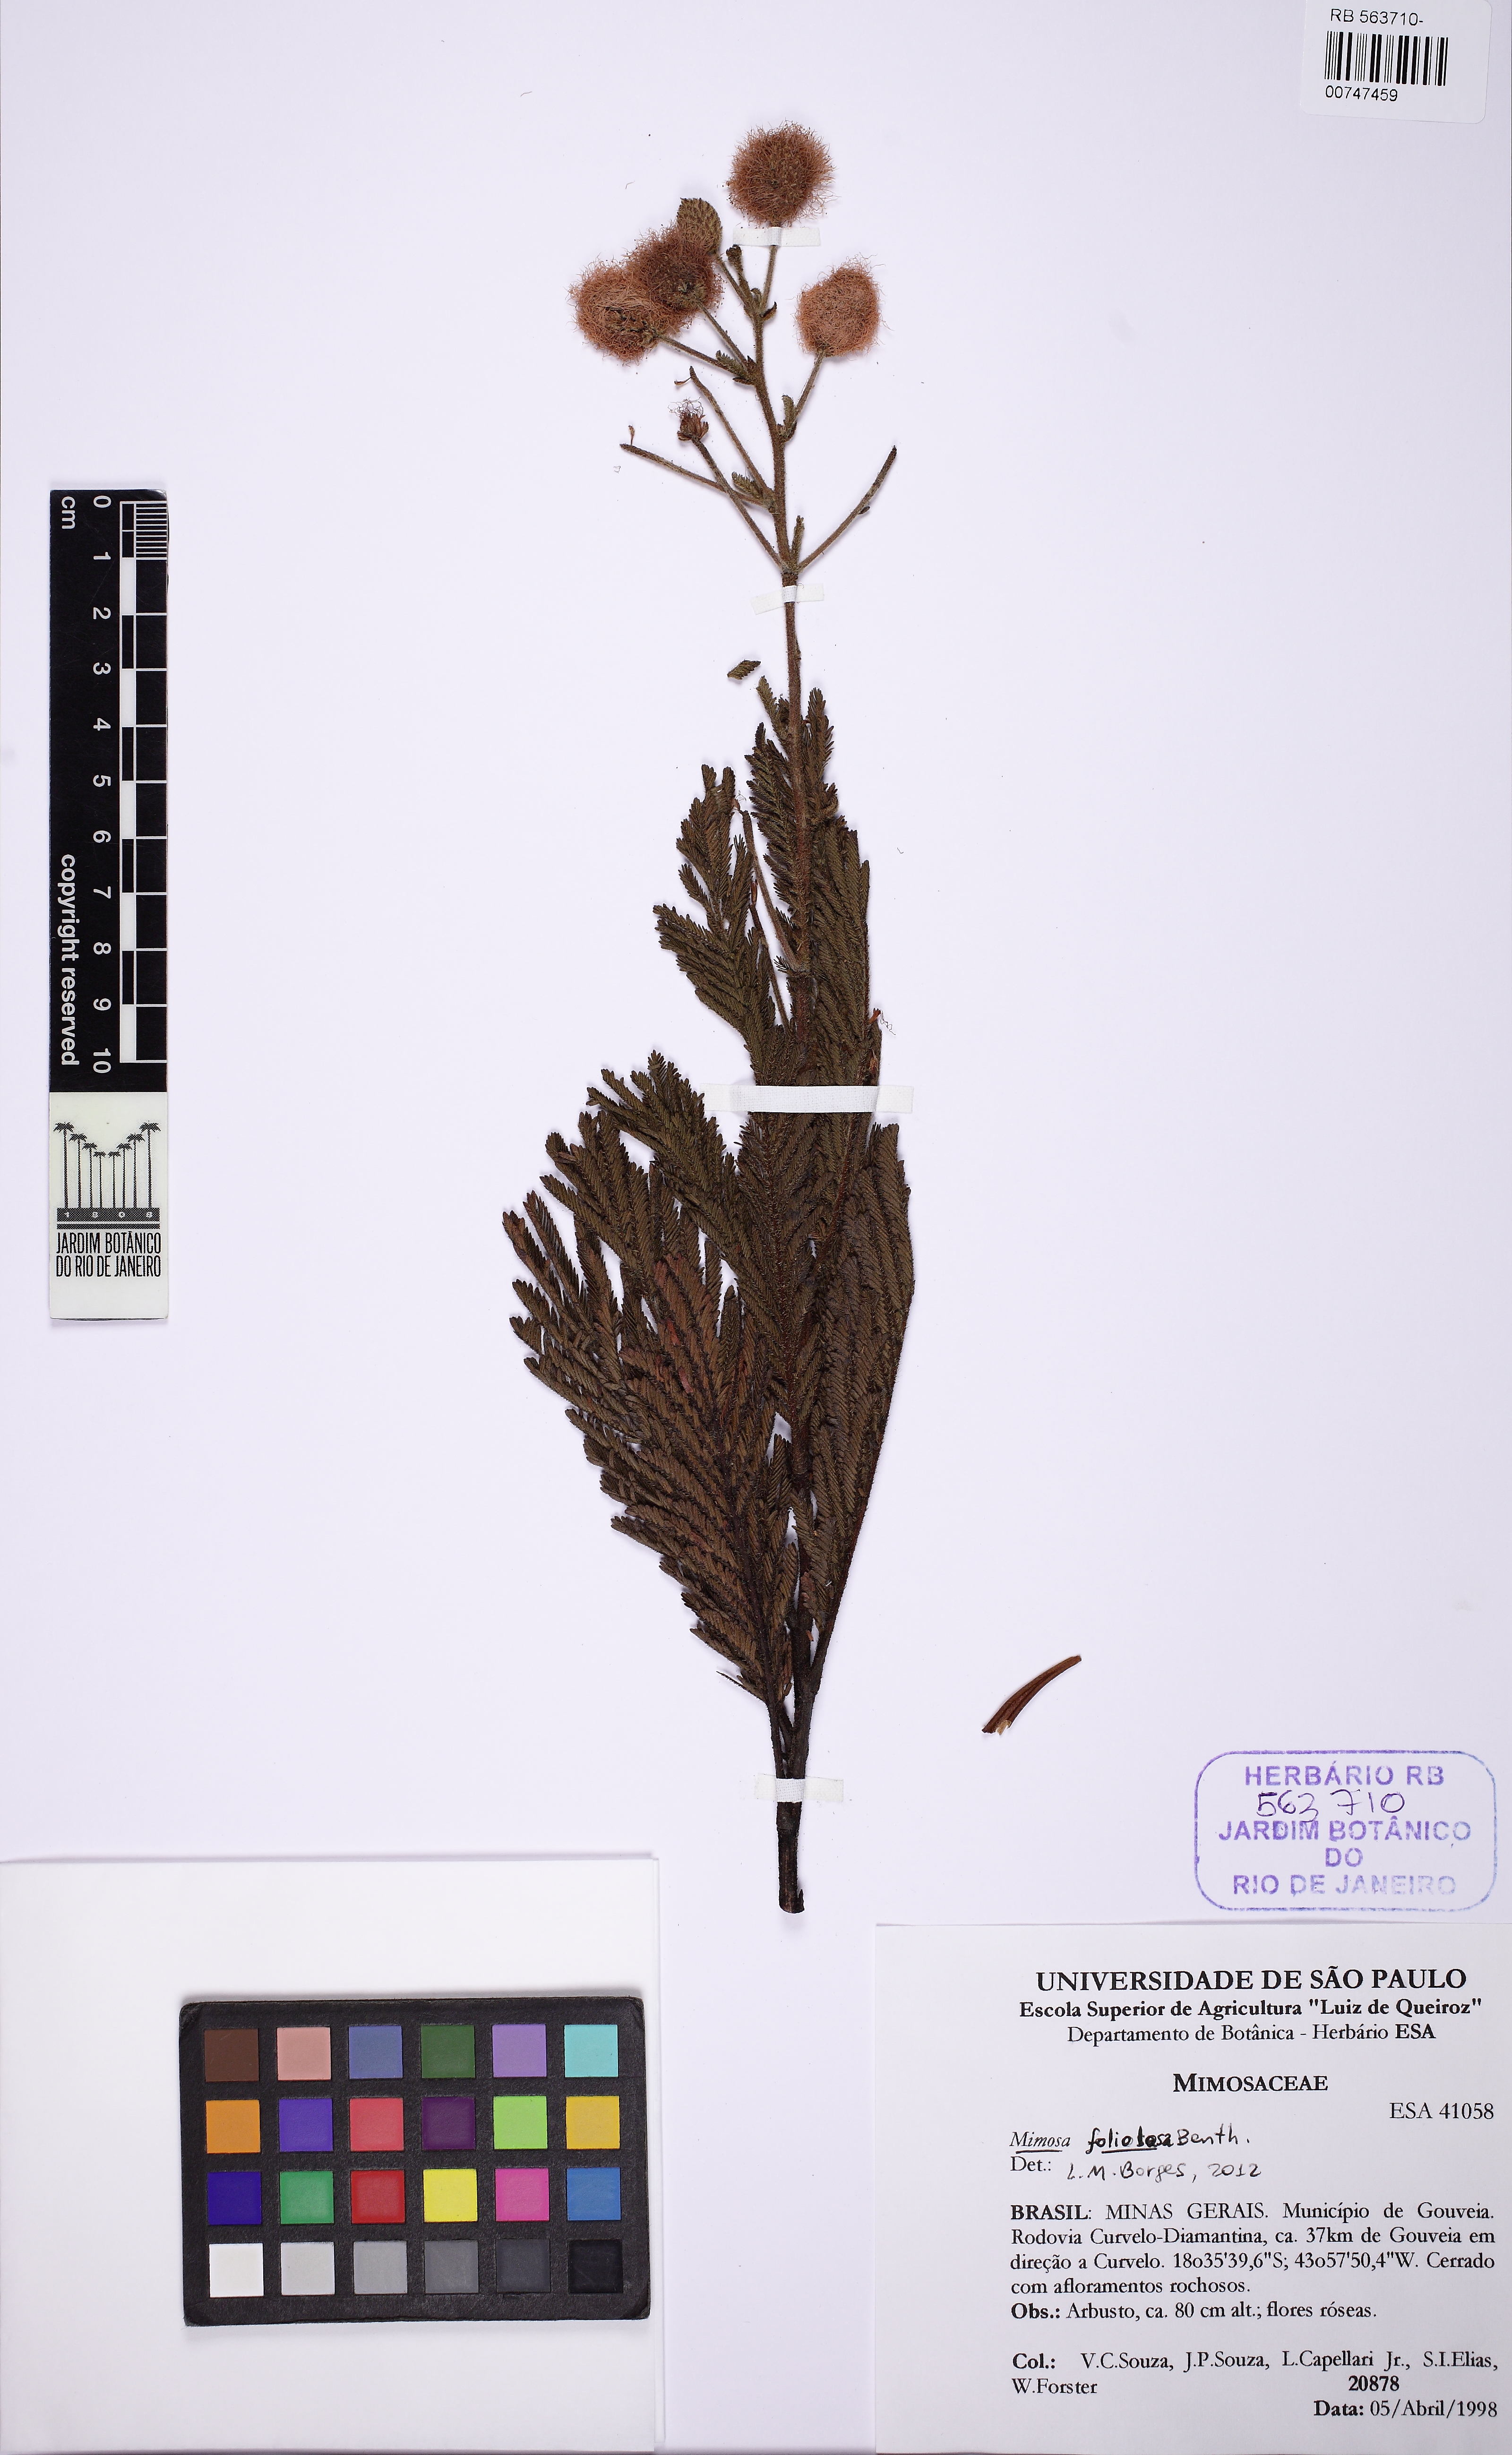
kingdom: Plantae
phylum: Tracheophyta
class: Magnoliopsida
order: Fabales
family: Fabaceae
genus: Mimosa
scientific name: Mimosa foliolosa
